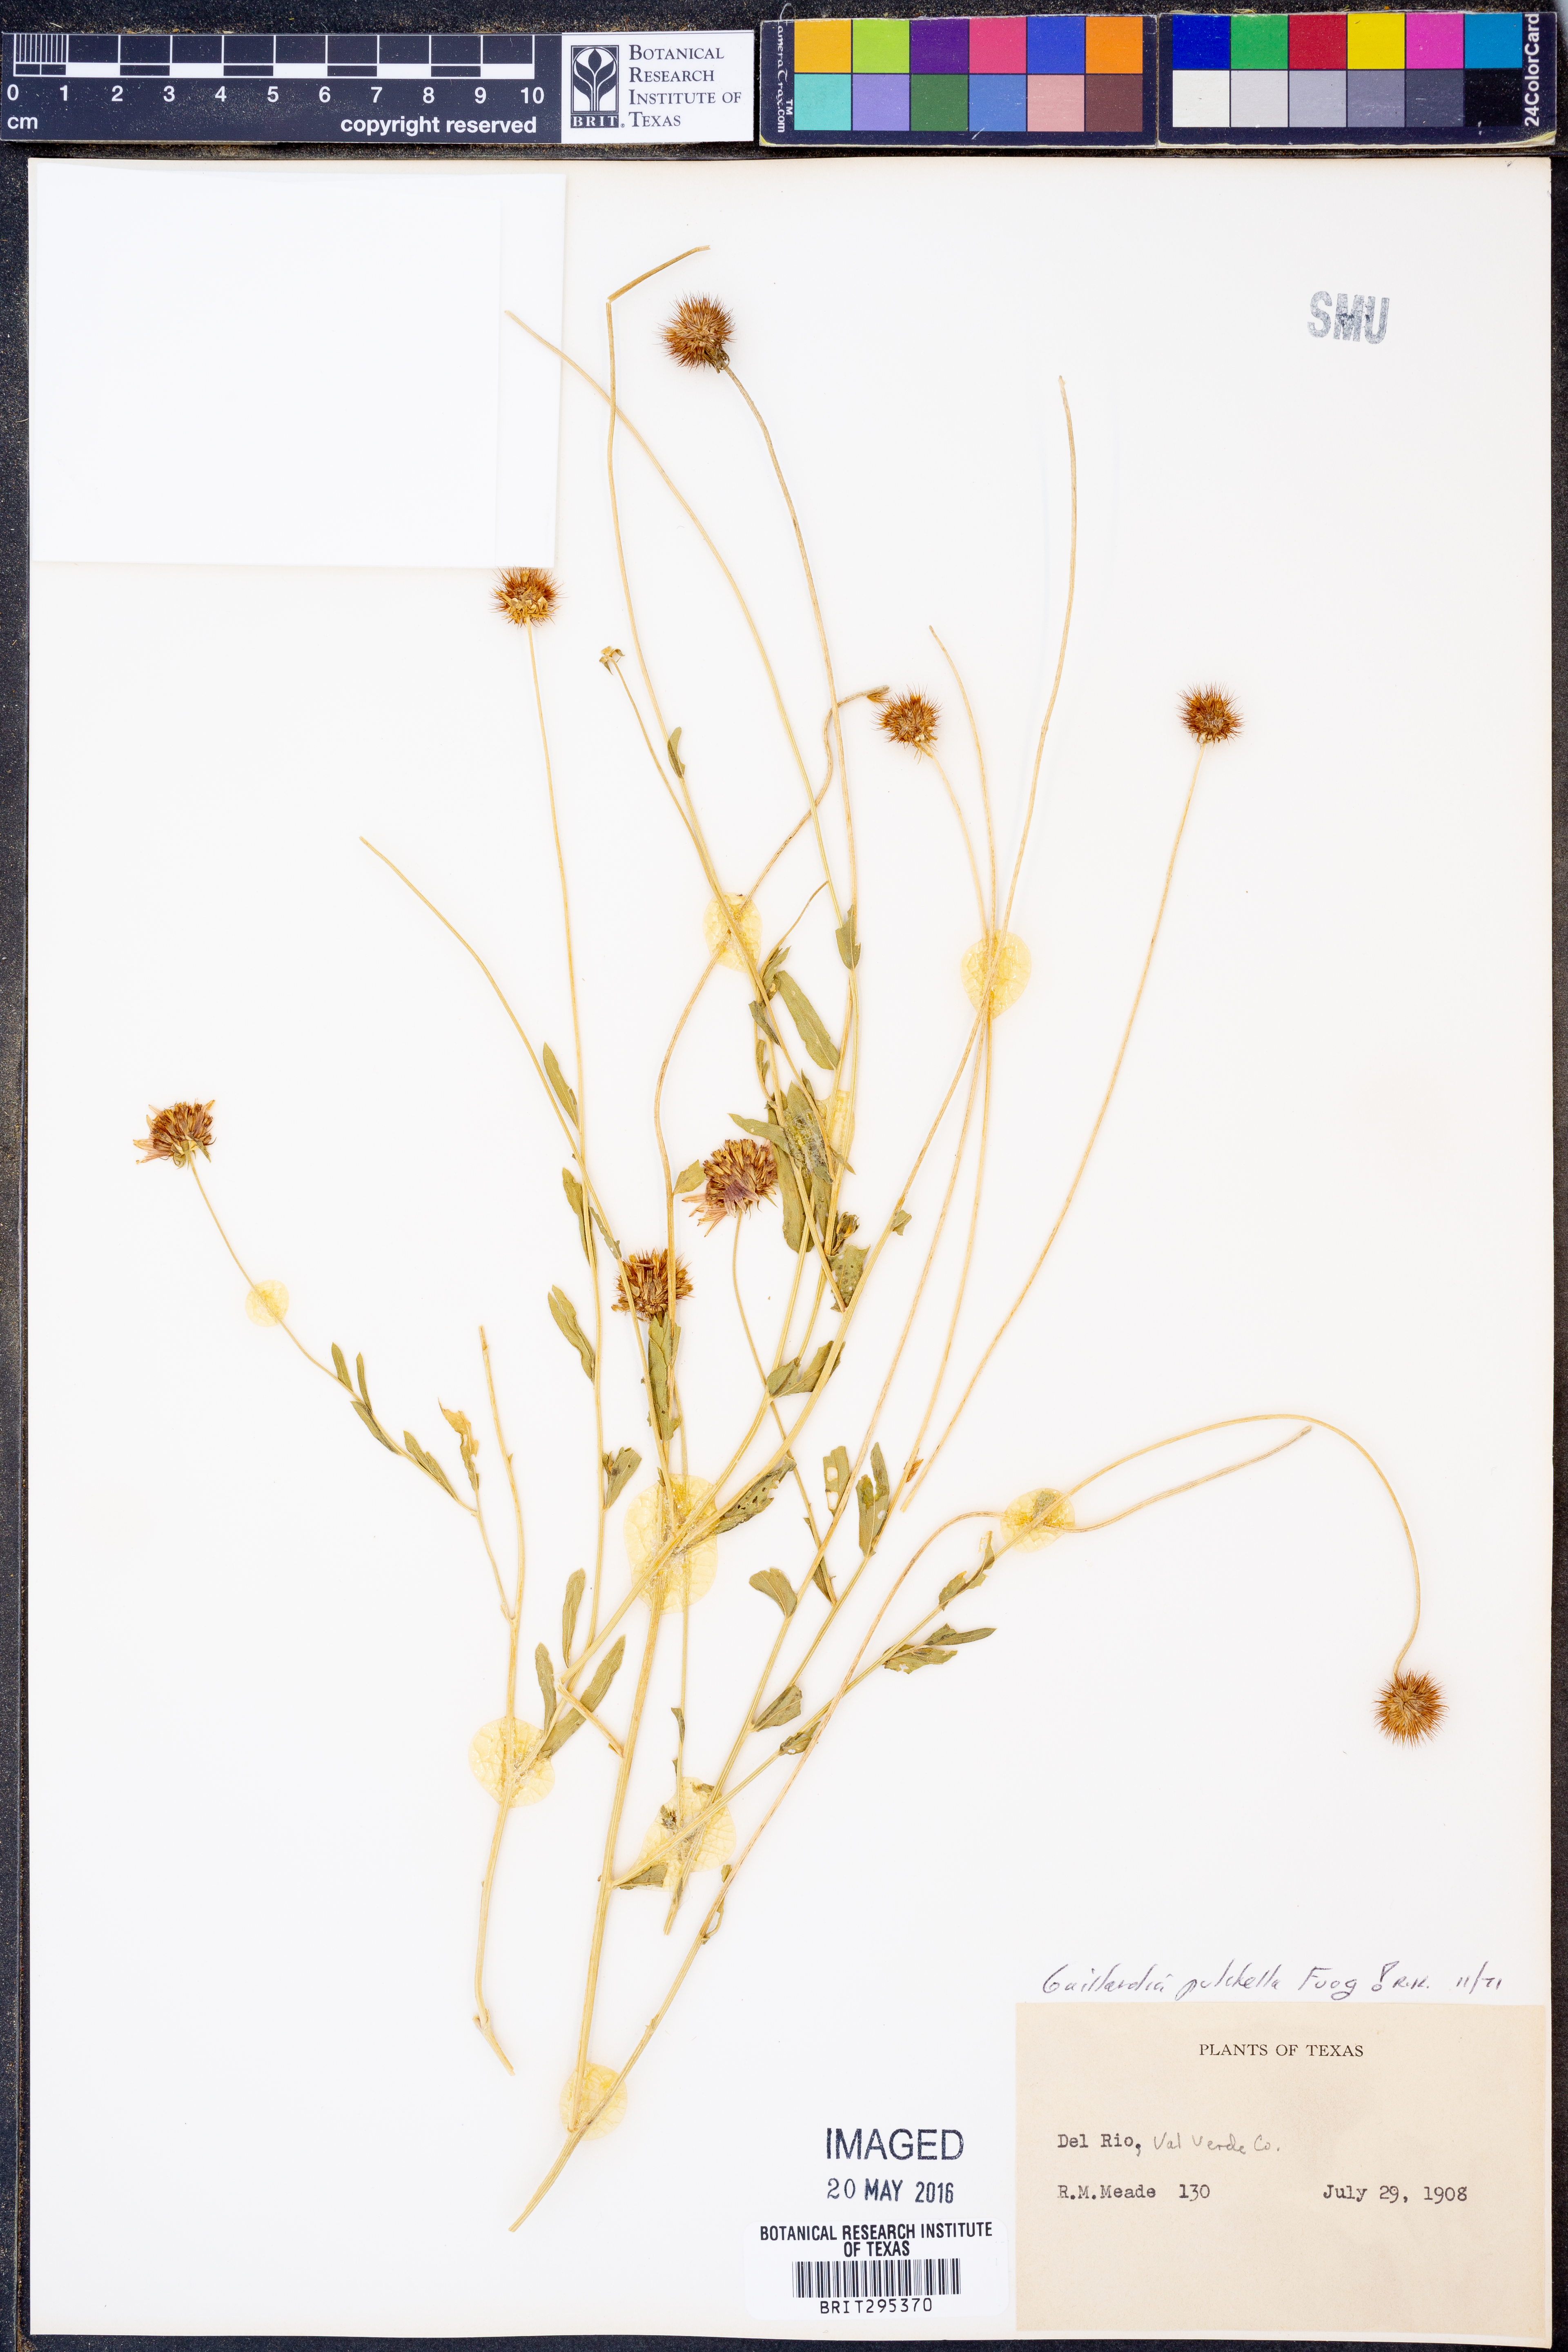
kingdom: Plantae
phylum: Tracheophyta
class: Magnoliopsida
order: Asterales
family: Asteraceae
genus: Gaillardia
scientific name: Gaillardia pulchella
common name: Firewheel
